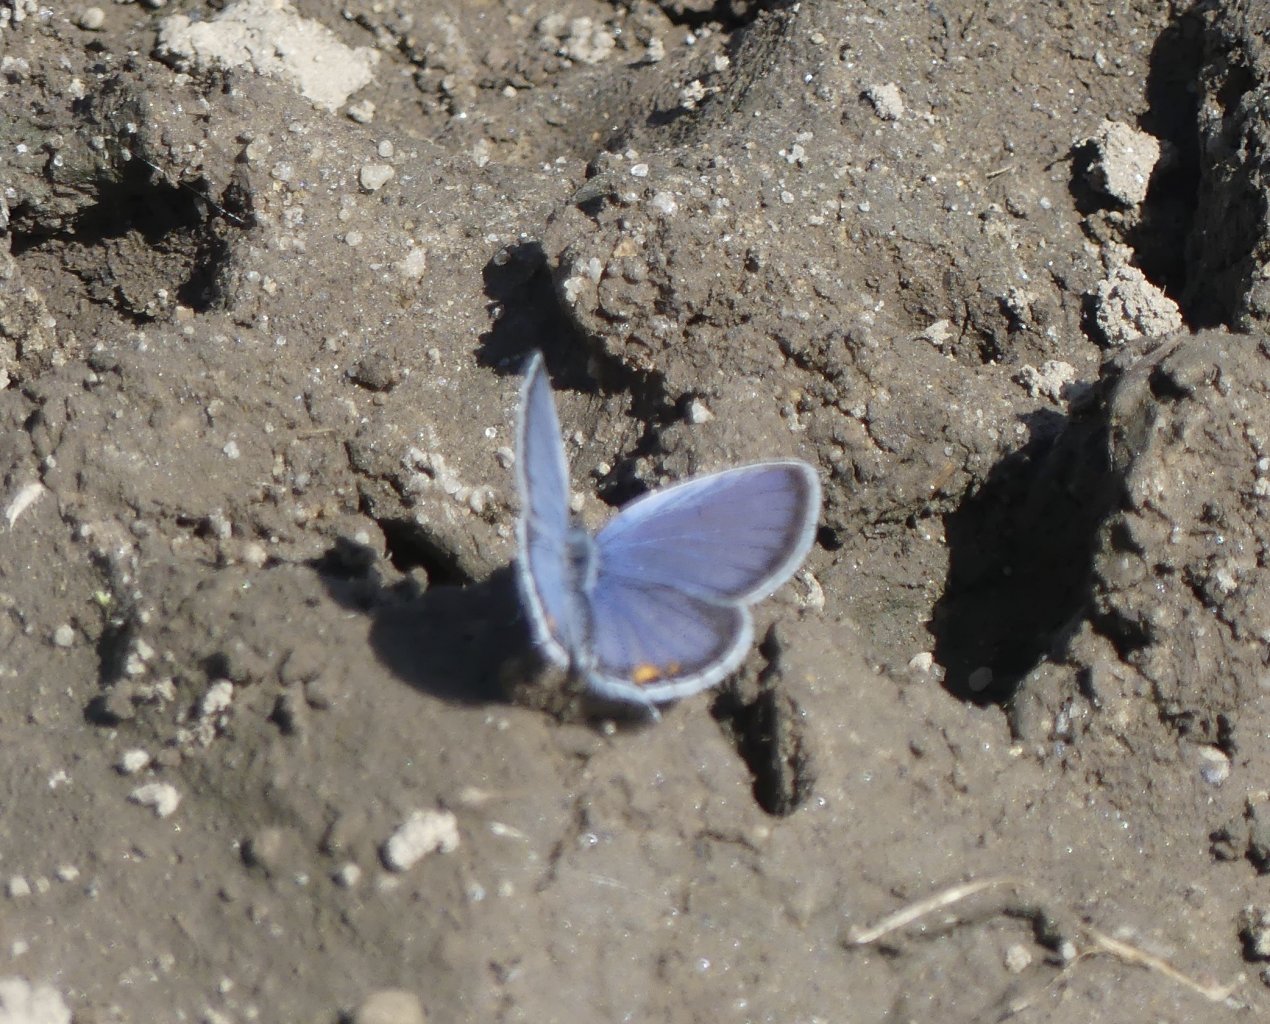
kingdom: Animalia
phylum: Arthropoda
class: Insecta
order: Lepidoptera
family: Lycaenidae
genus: Elkalyce
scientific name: Elkalyce comyntas
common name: Eastern Tailed-Blue
